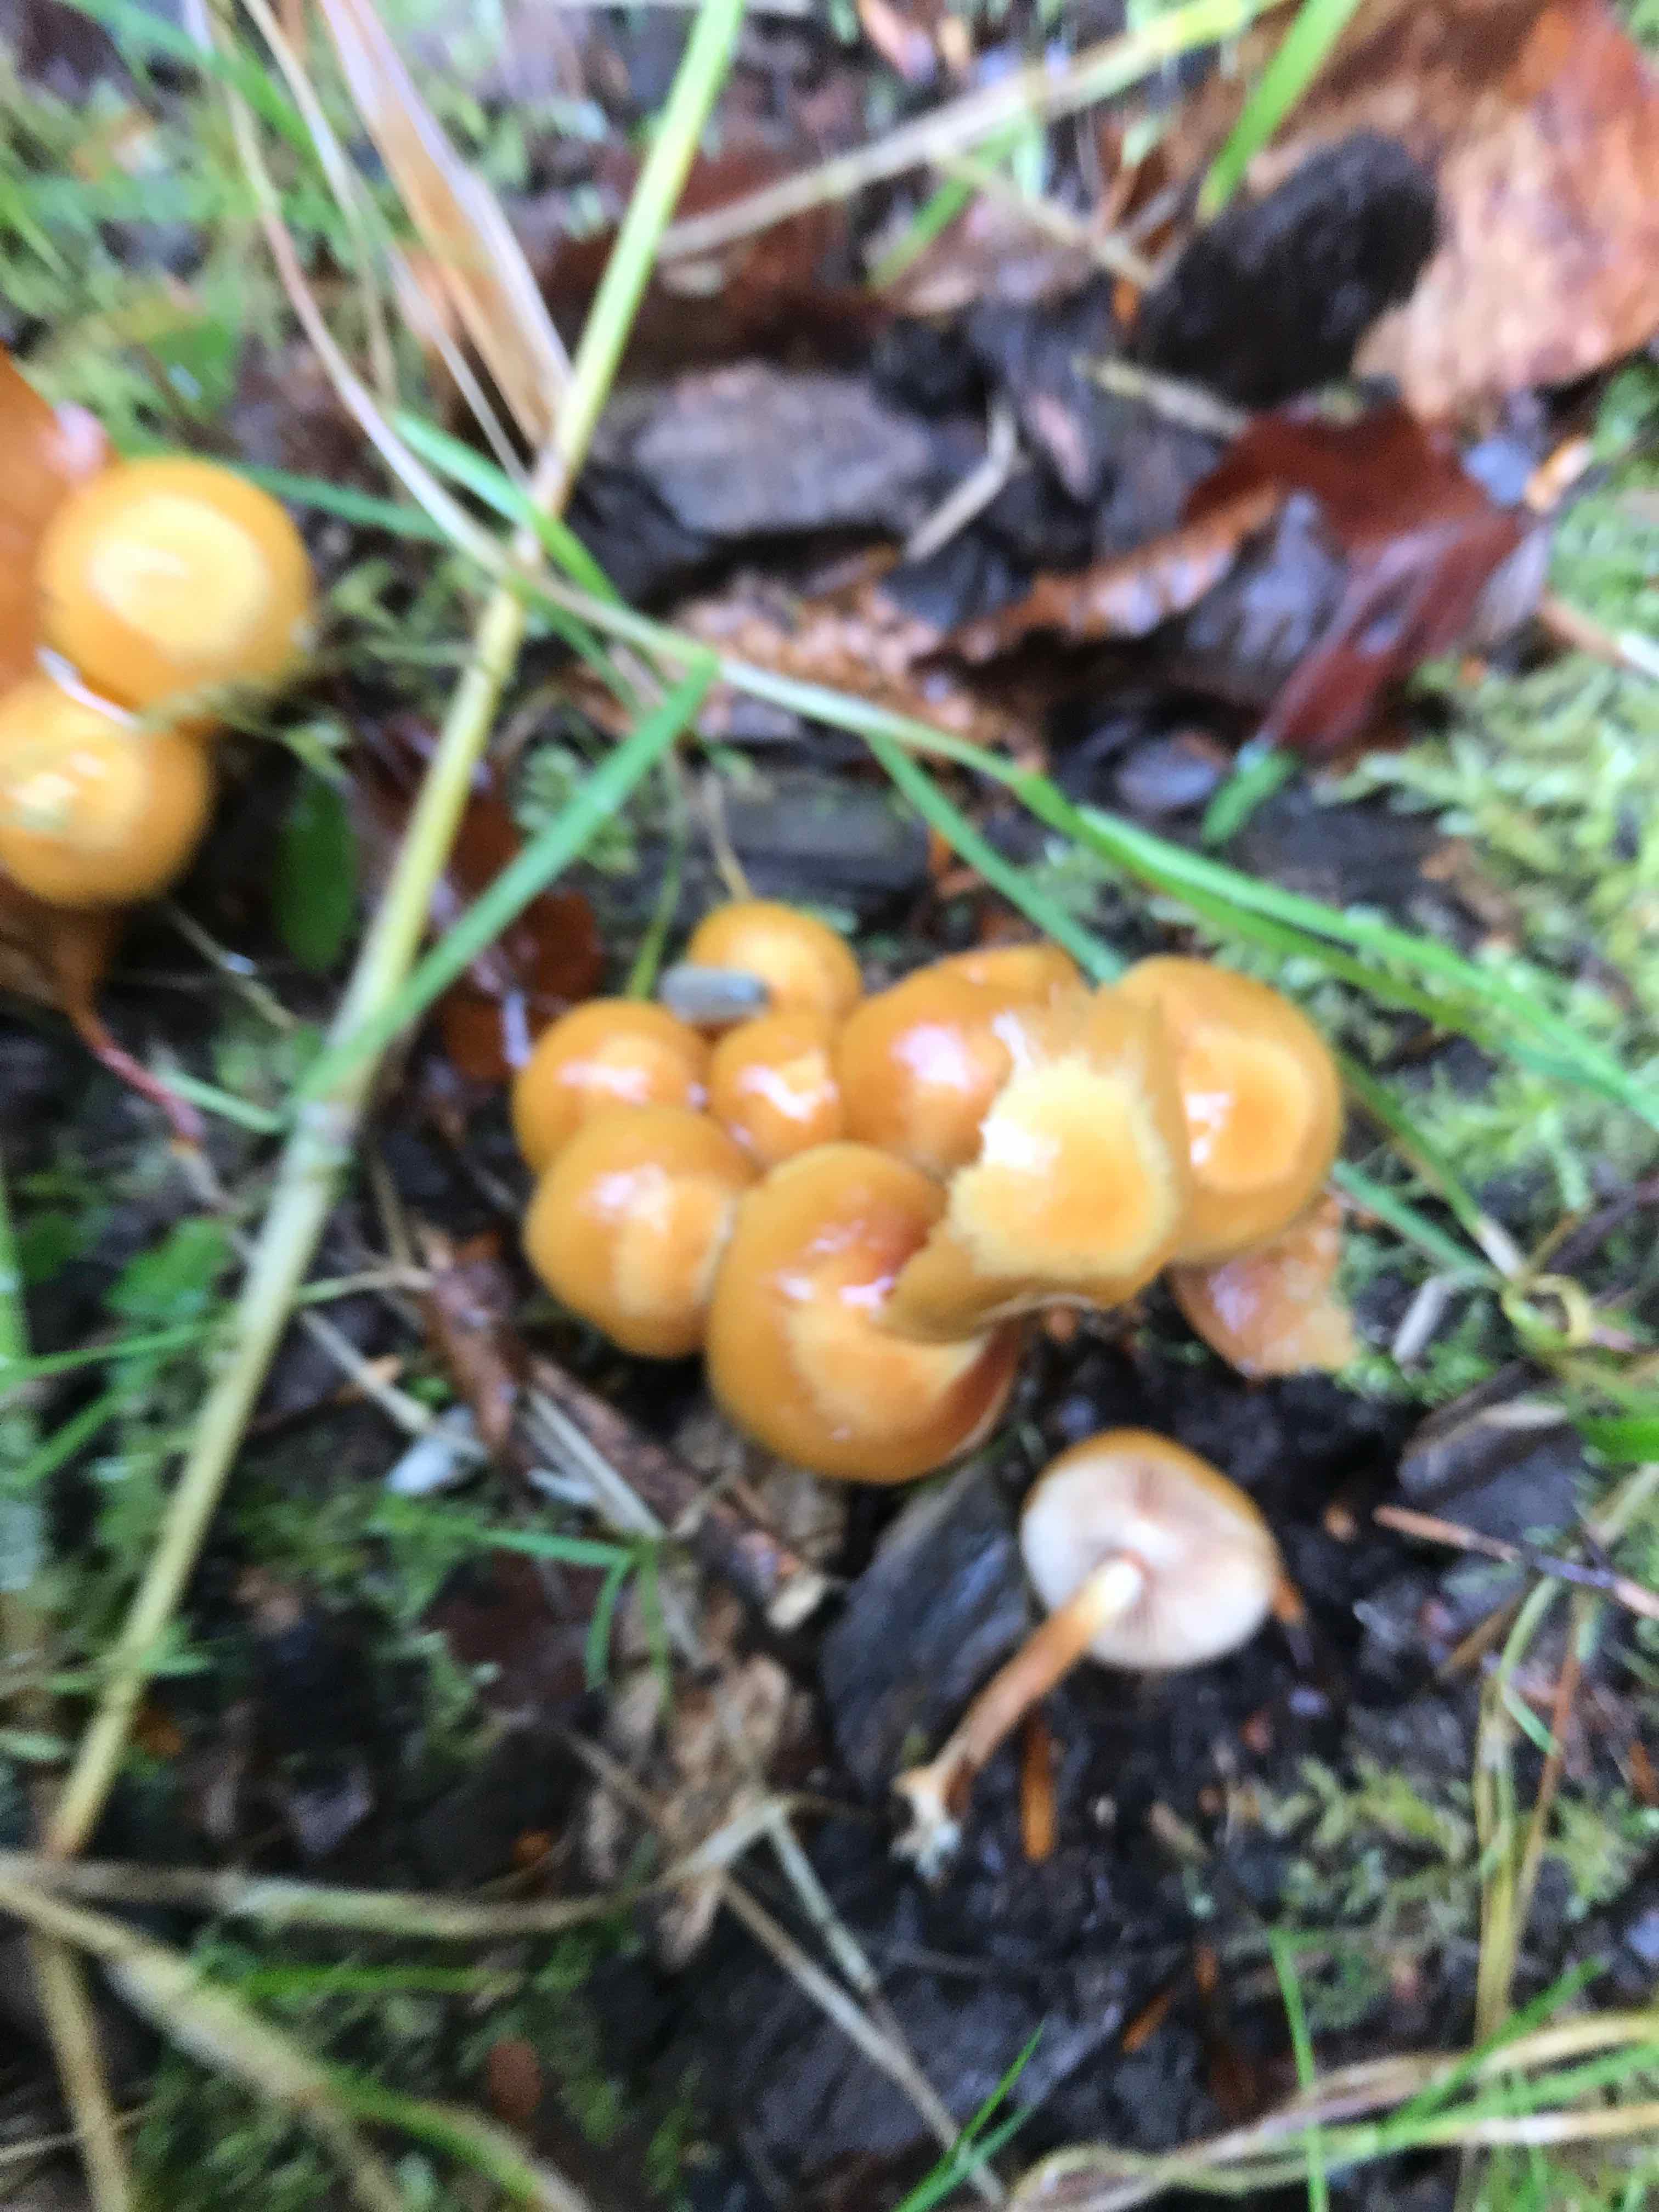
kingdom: Fungi
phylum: Basidiomycota
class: Agaricomycetes
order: Agaricales
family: Strophariaceae
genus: Kuehneromyces
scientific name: Kuehneromyces mutabilis
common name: foranderlig skælhat
